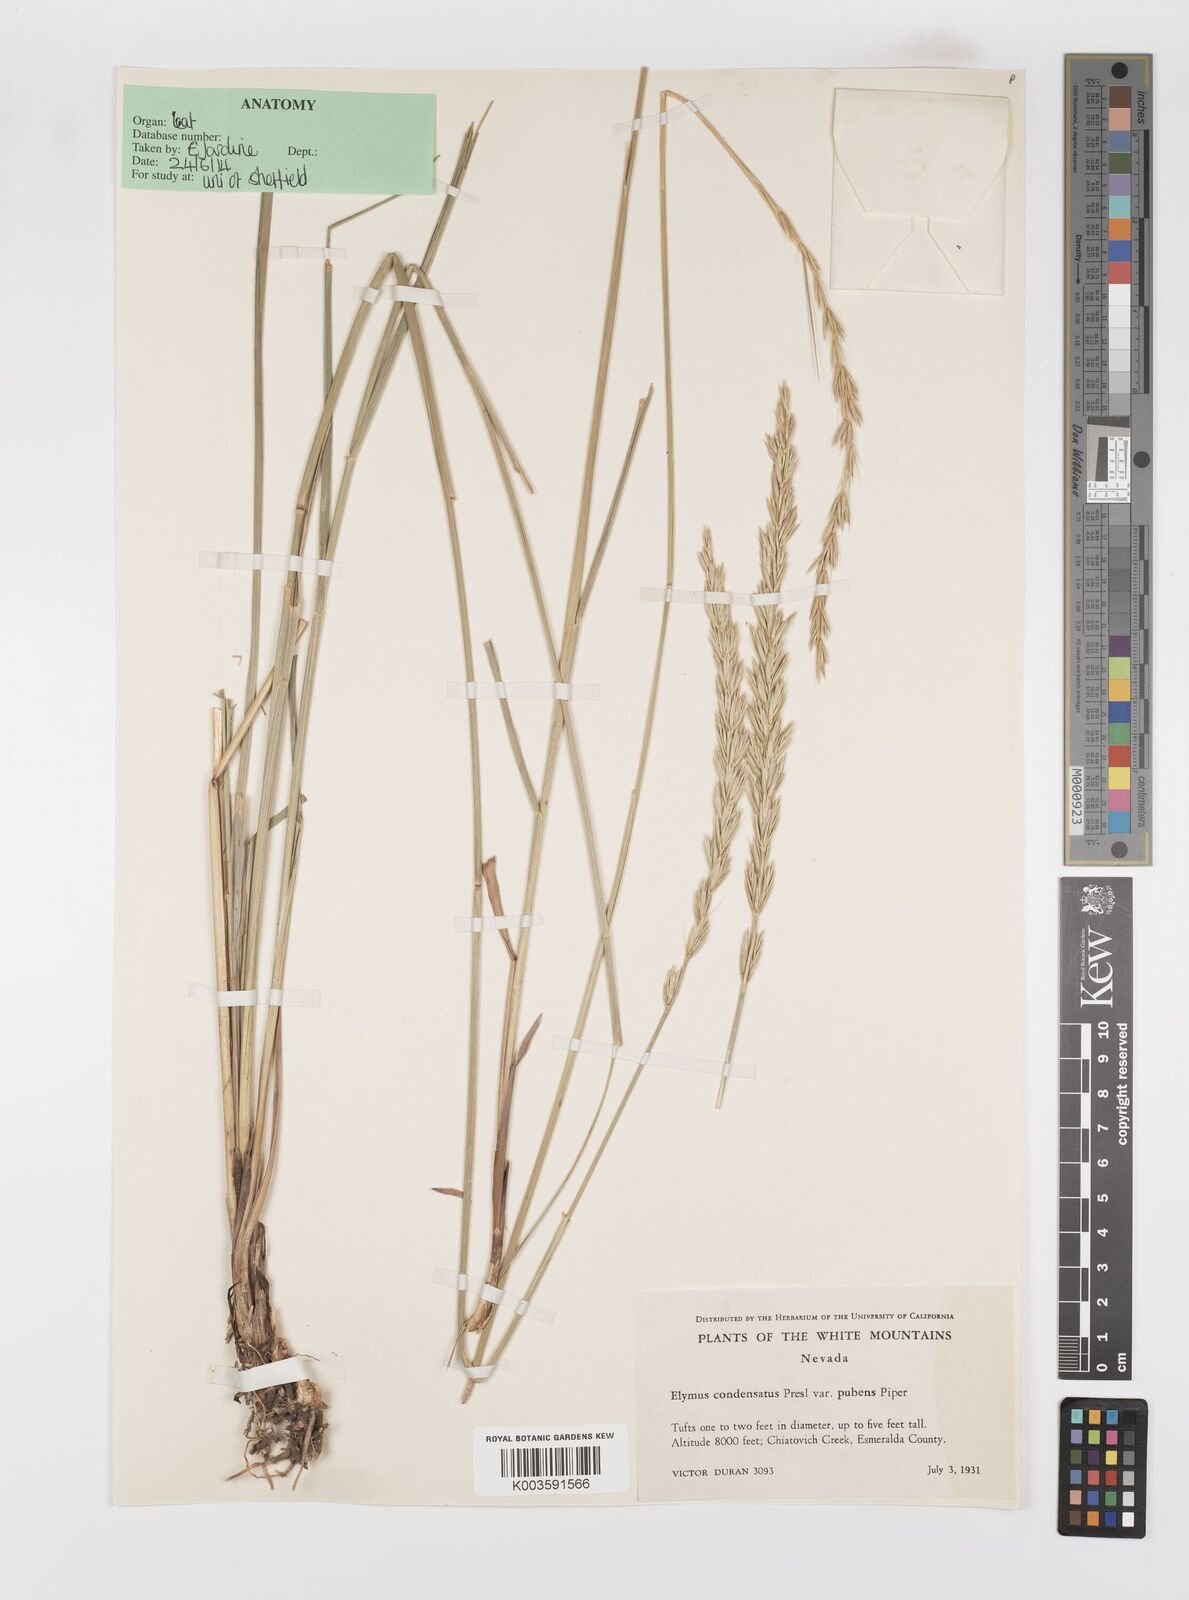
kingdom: Plantae
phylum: Tracheophyta
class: Liliopsida
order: Poales
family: Poaceae
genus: Leymus
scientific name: Leymus cinereus
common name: Basin wild rye
